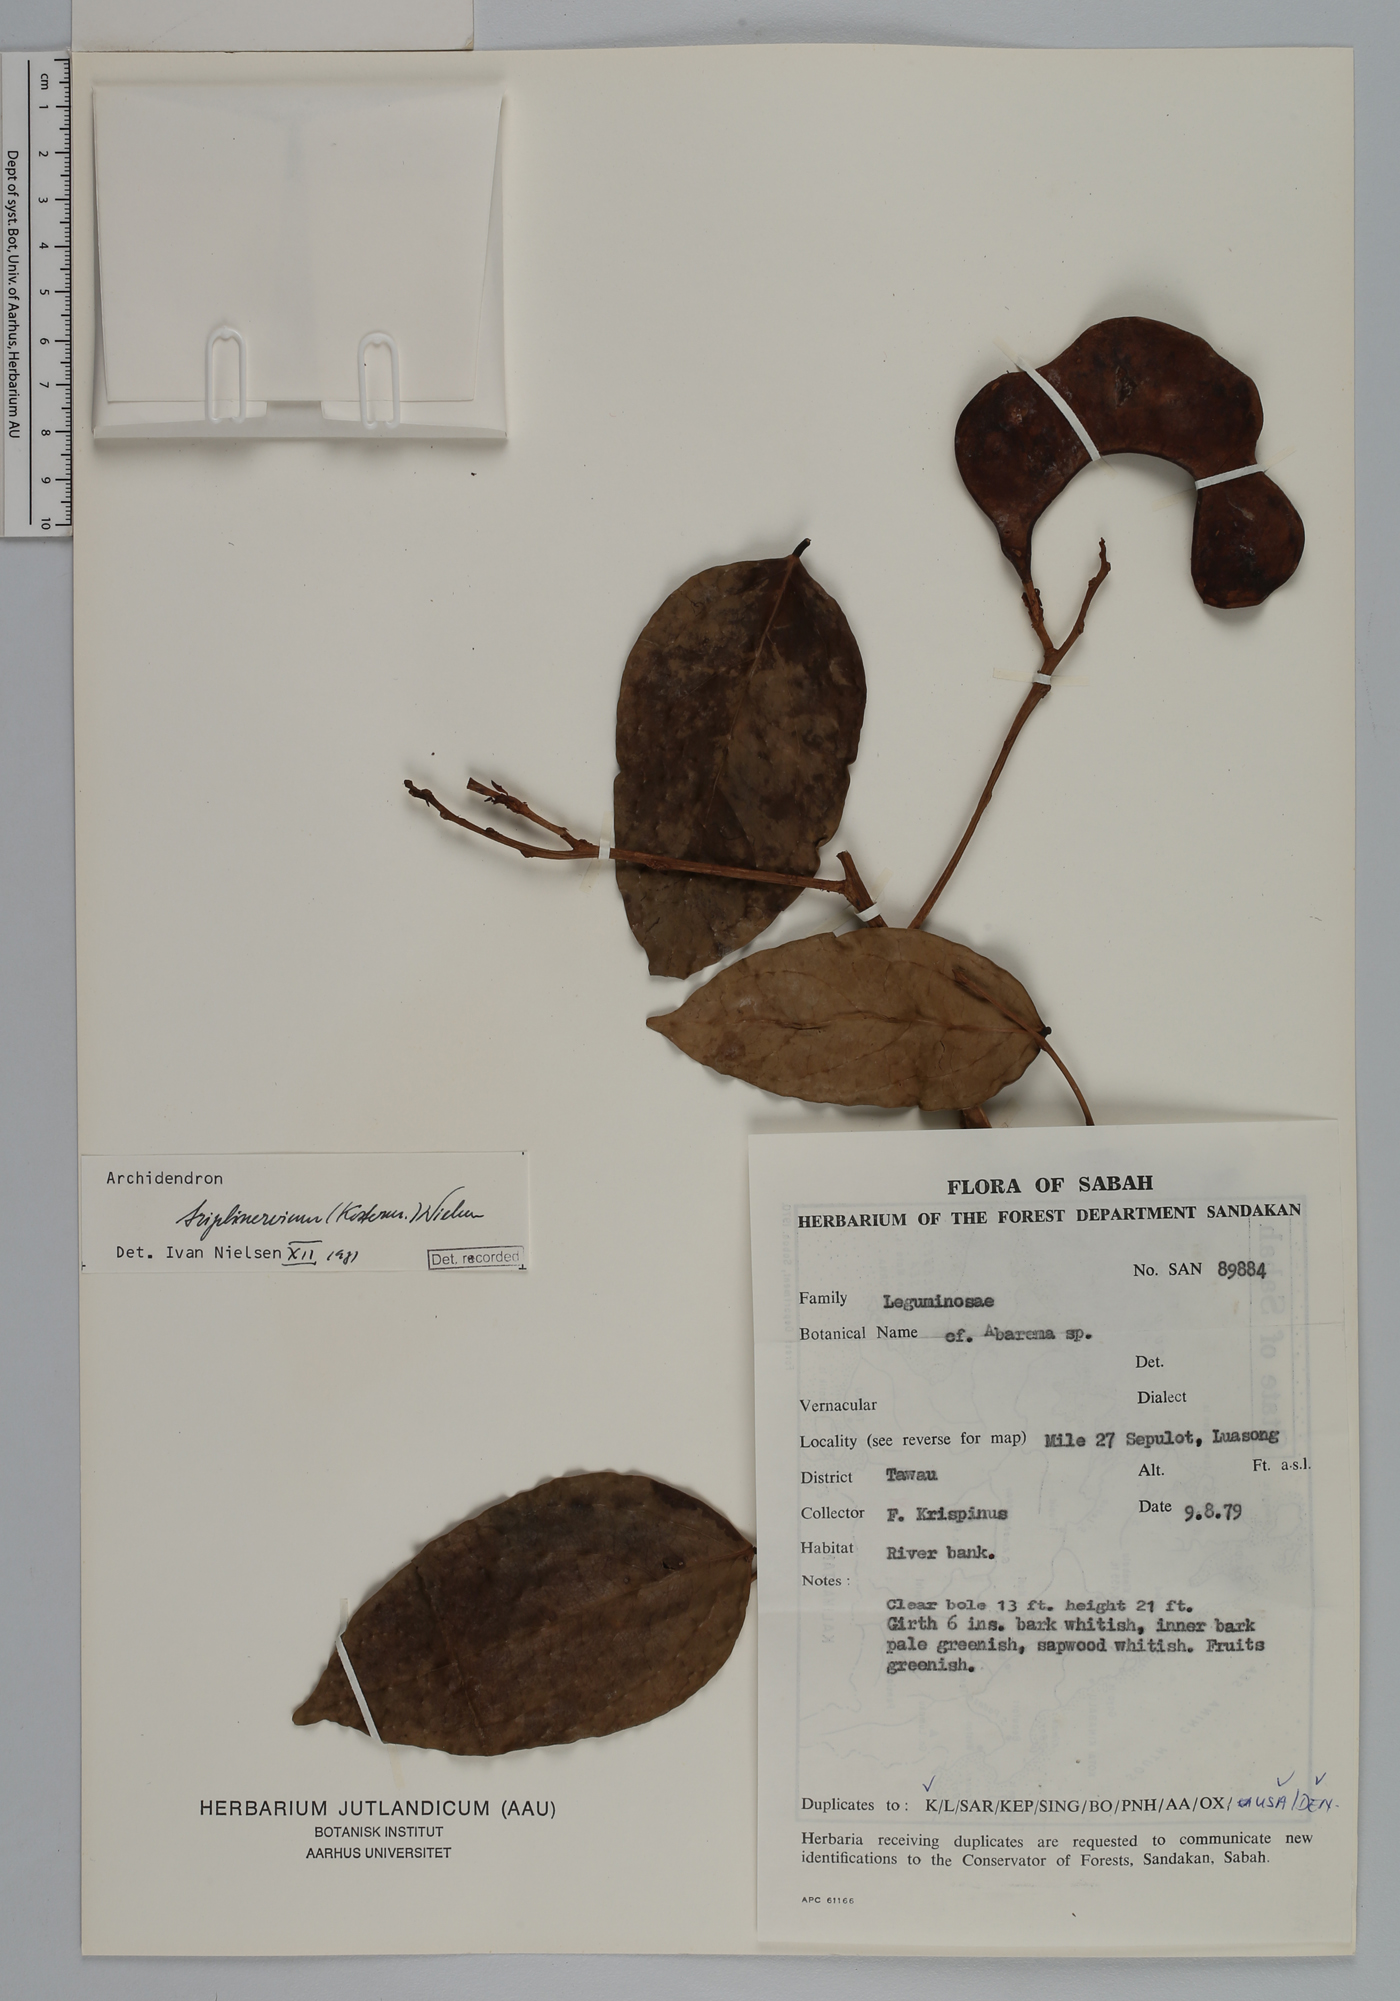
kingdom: Plantae
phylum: Tracheophyta
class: Magnoliopsida
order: Fabales
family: Fabaceae
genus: Archidendron
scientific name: Archidendron triplinervium
